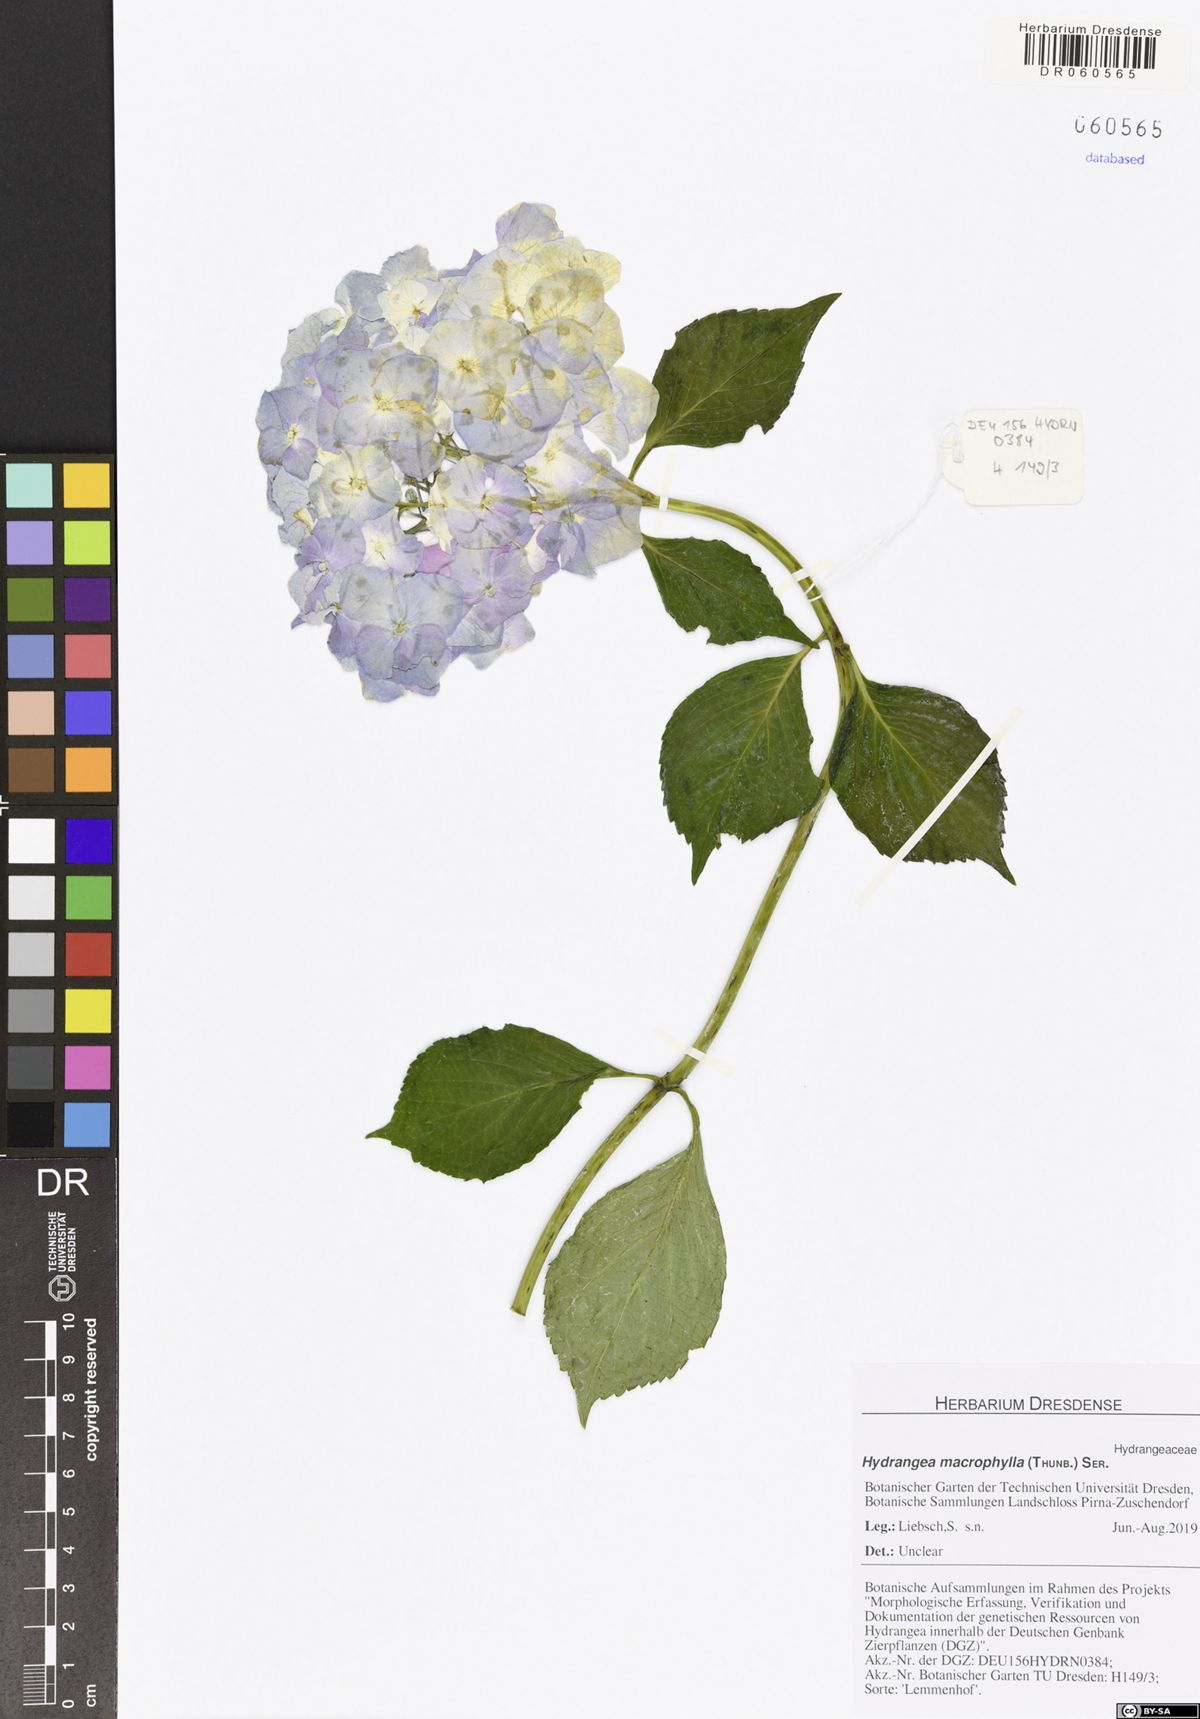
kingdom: Plantae
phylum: Tracheophyta
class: Magnoliopsida
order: Cornales
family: Hydrangeaceae
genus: Hydrangea
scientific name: Hydrangea macrophylla
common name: Hydrangea
